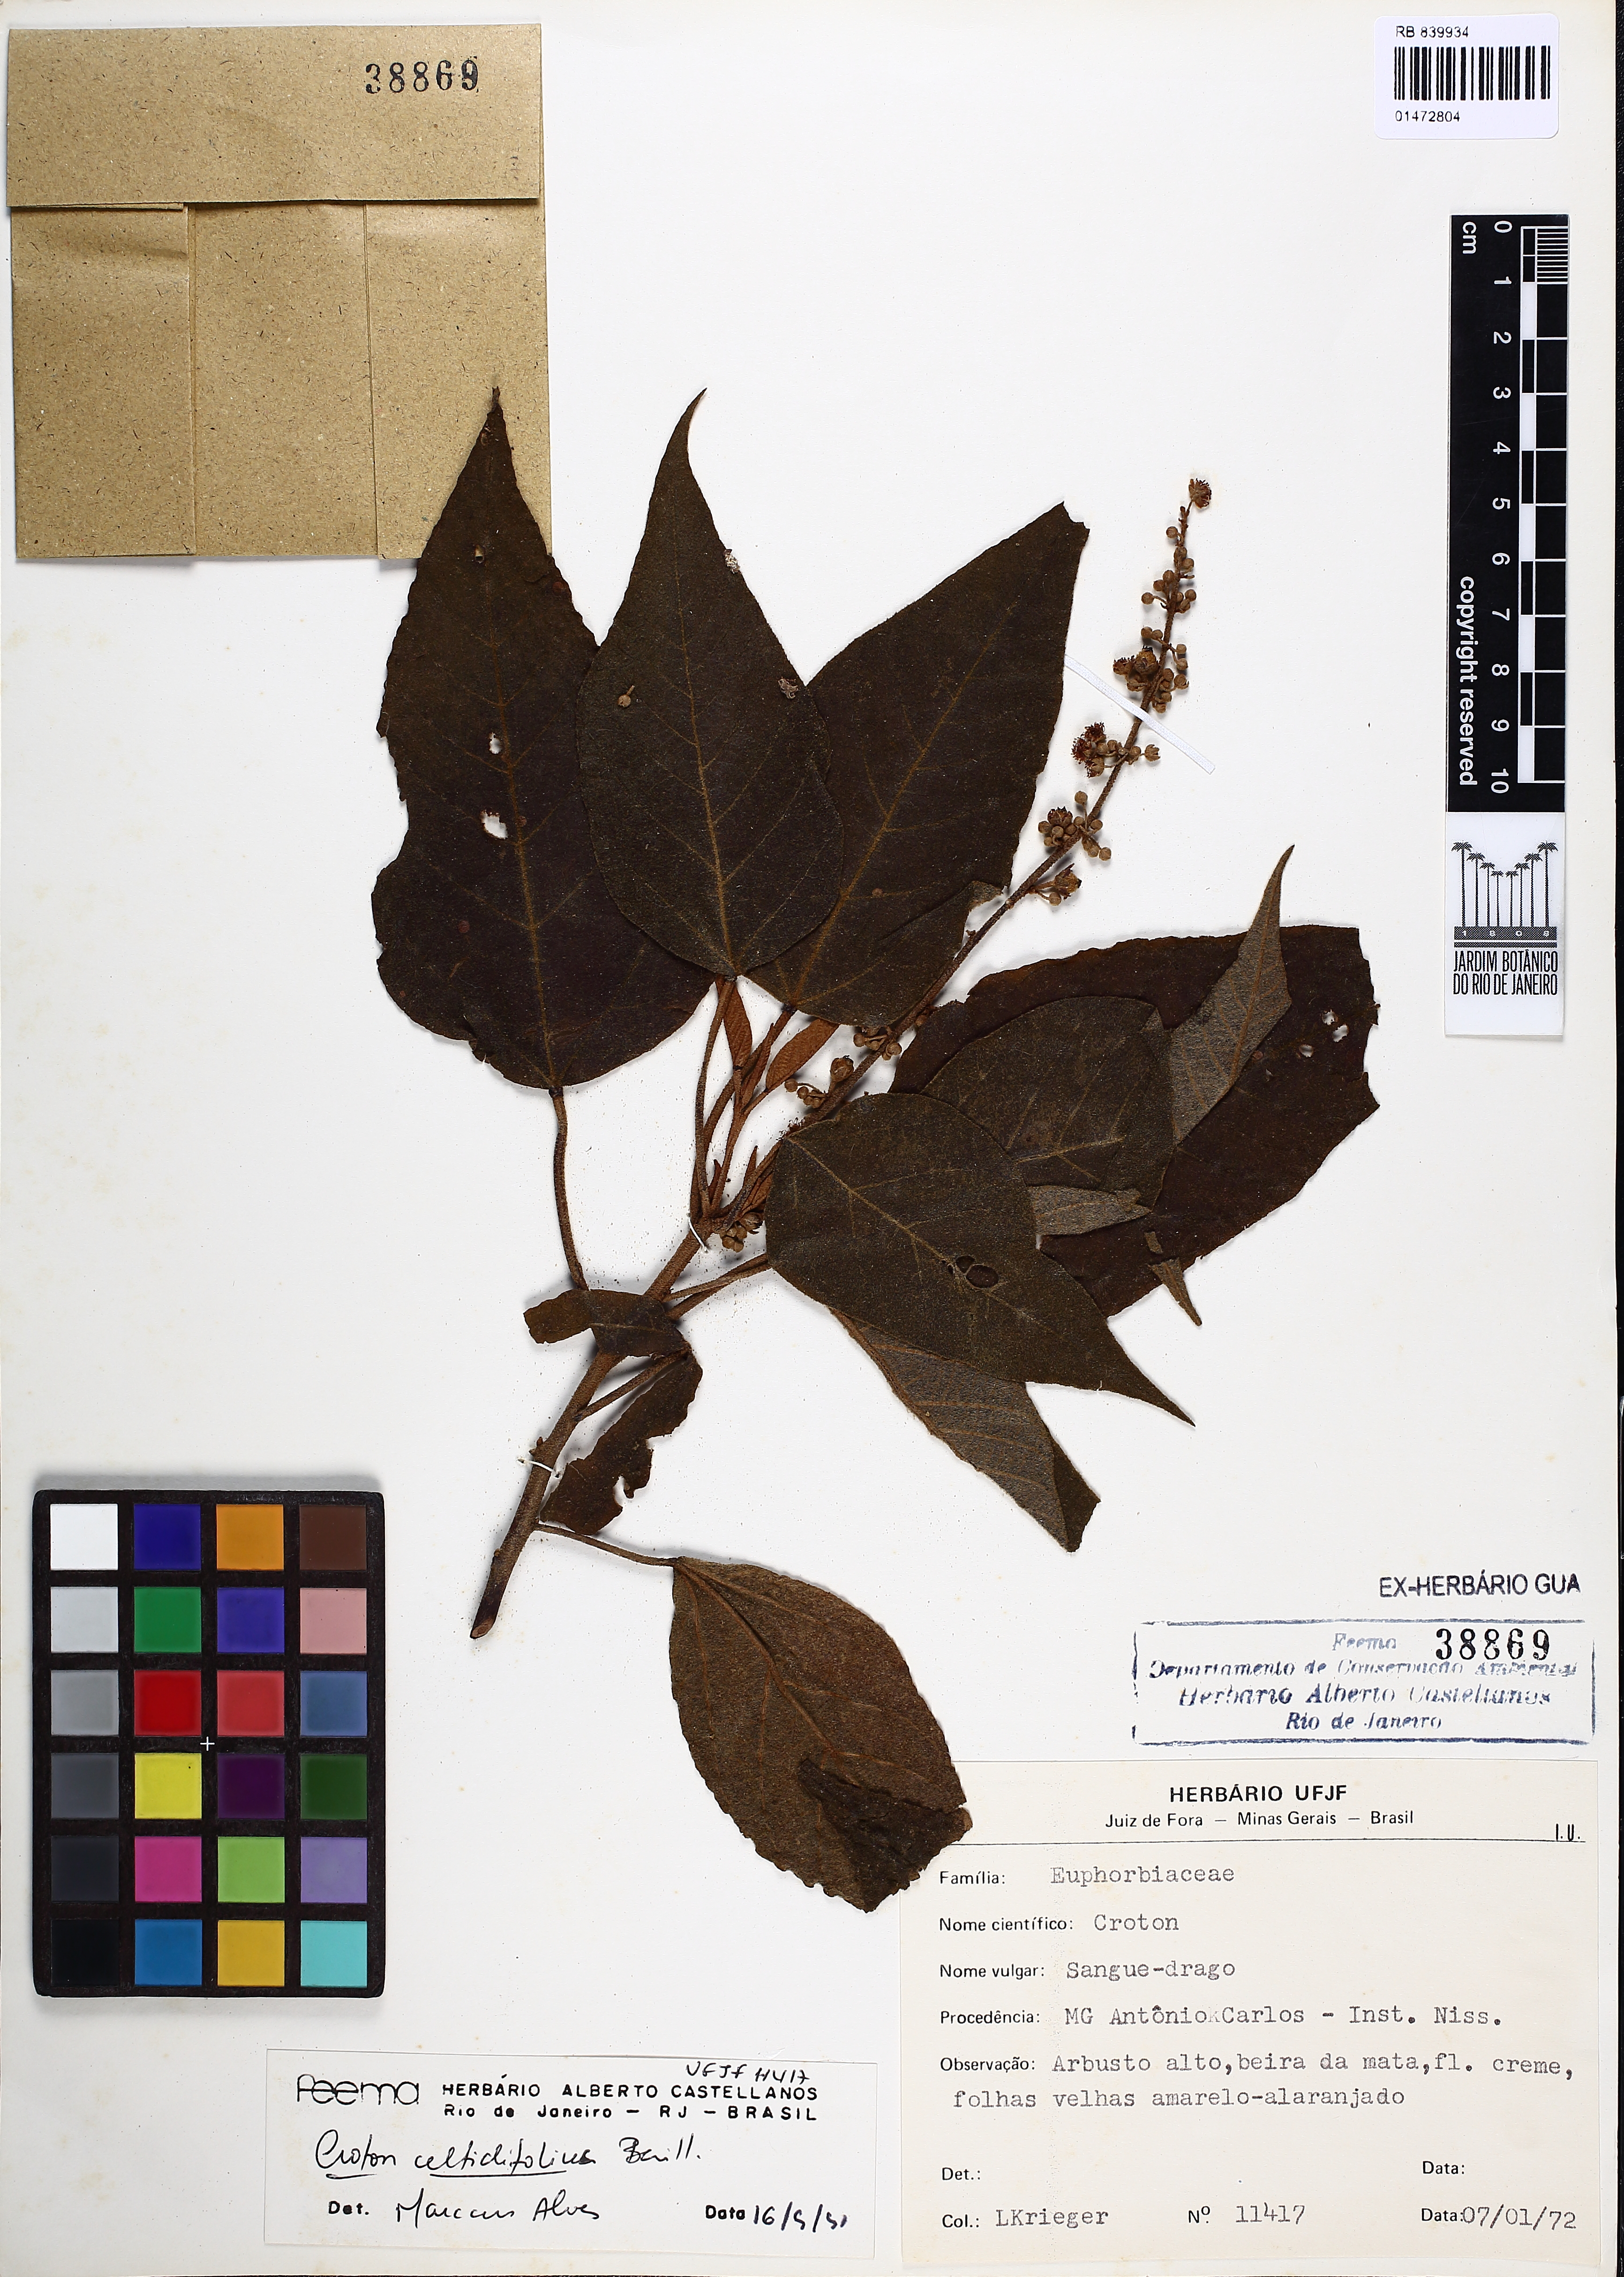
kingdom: Plantae
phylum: Tracheophyta
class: Magnoliopsida
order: Malpighiales
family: Euphorbiaceae
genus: Croton
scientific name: Croton celtidifolius
